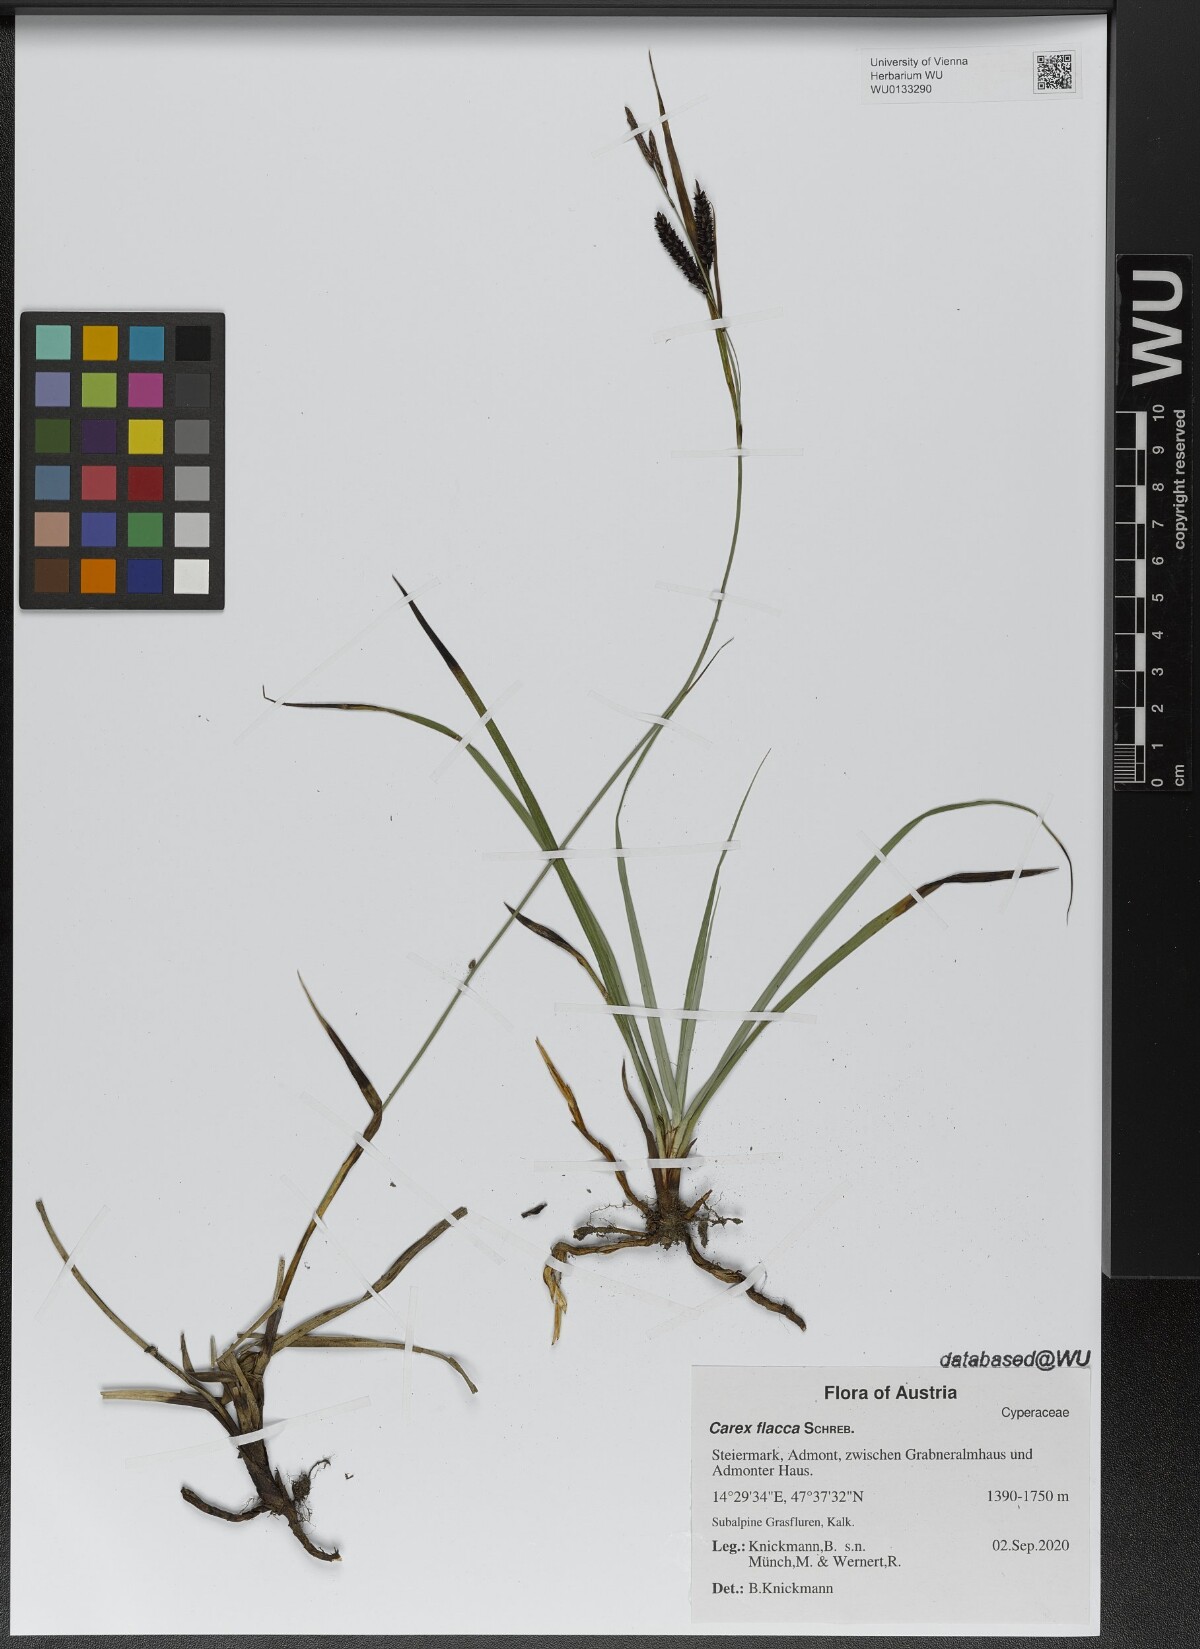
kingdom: Plantae
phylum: Tracheophyta
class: Liliopsida
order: Poales
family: Cyperaceae
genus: Carex
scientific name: Carex flacca
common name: Glaucous sedge
